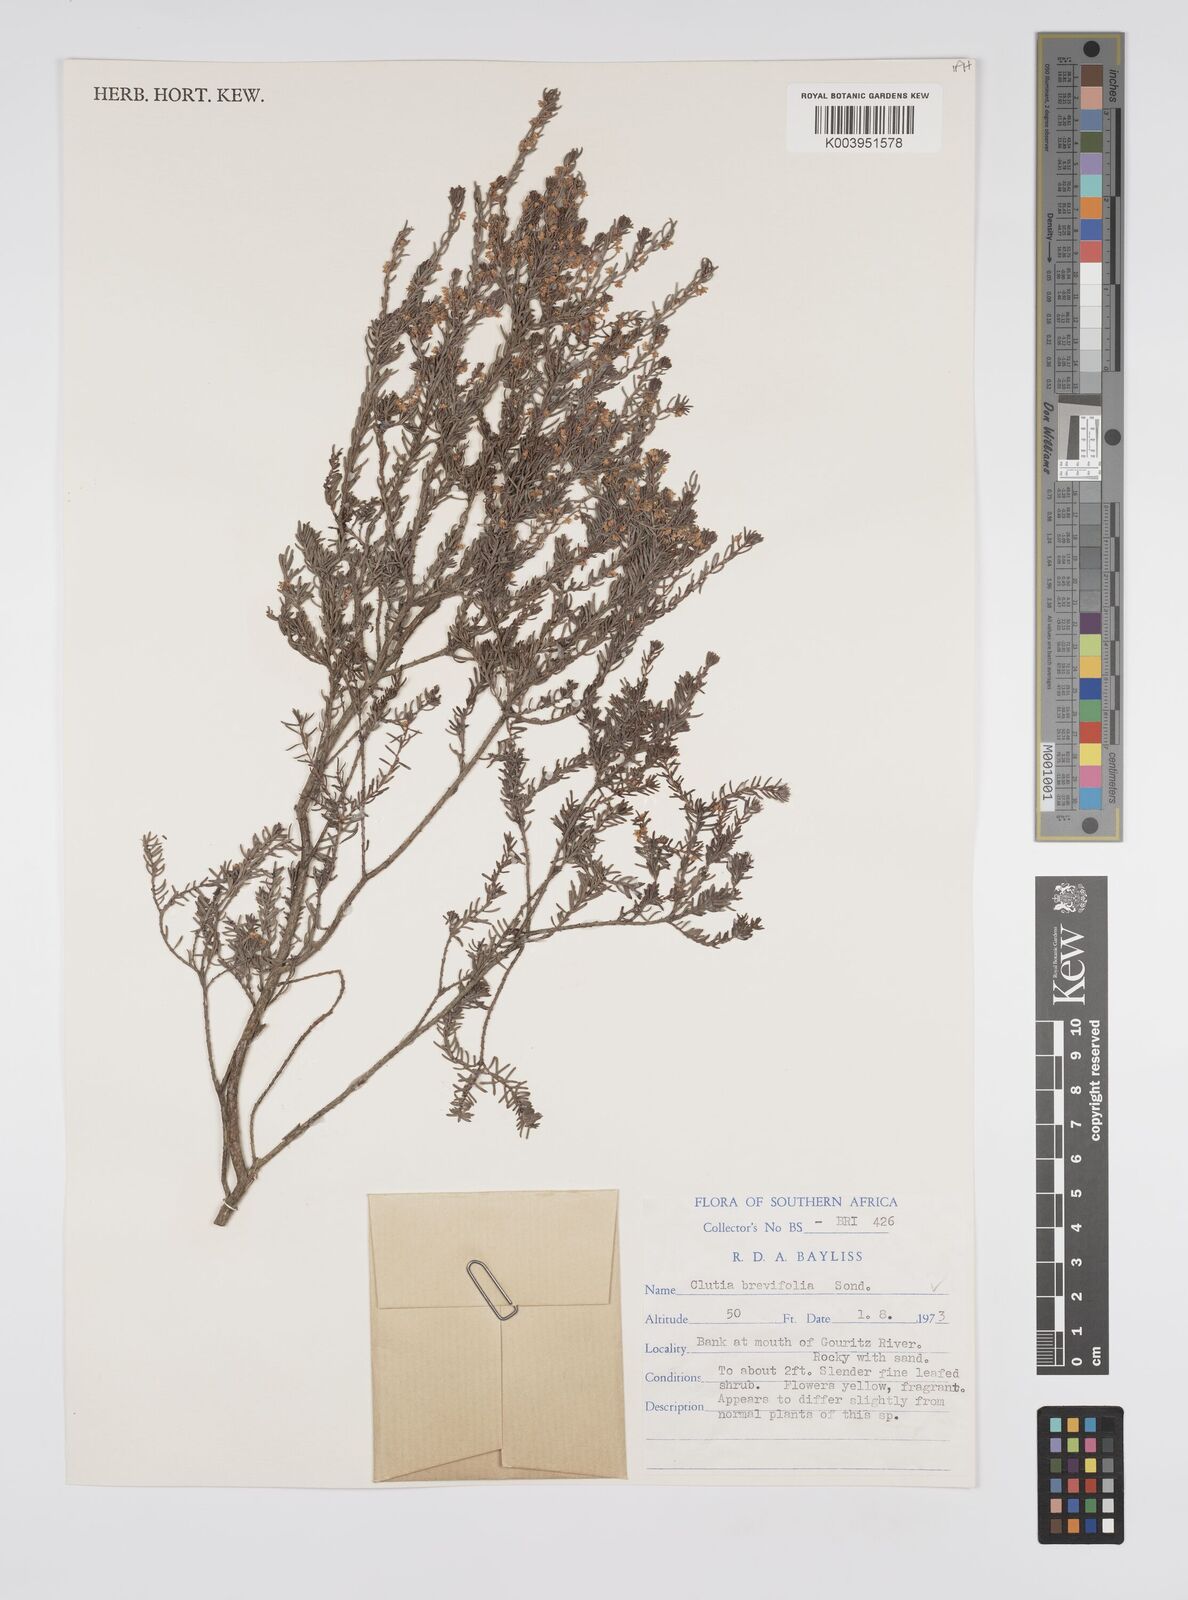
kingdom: Plantae
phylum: Tracheophyta
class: Magnoliopsida
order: Malpighiales
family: Peraceae
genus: Clutia
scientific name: Clutia brevifolia
